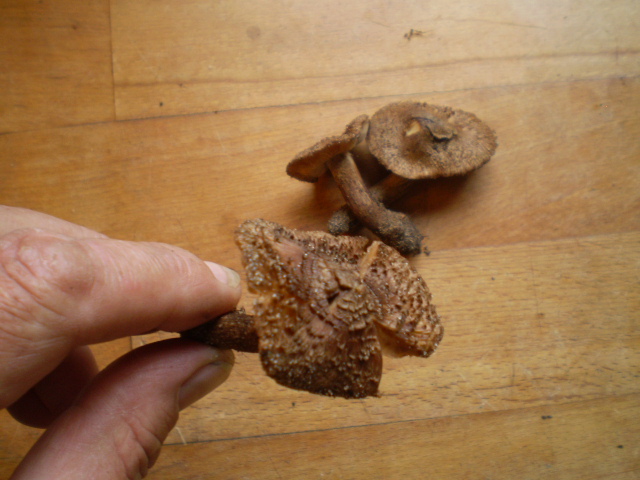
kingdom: Fungi
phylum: Basidiomycota
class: Agaricomycetes
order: Agaricales
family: Inocybaceae
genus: Inocybe
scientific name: Inocybe subcarpta
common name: plantage-trævlhat
